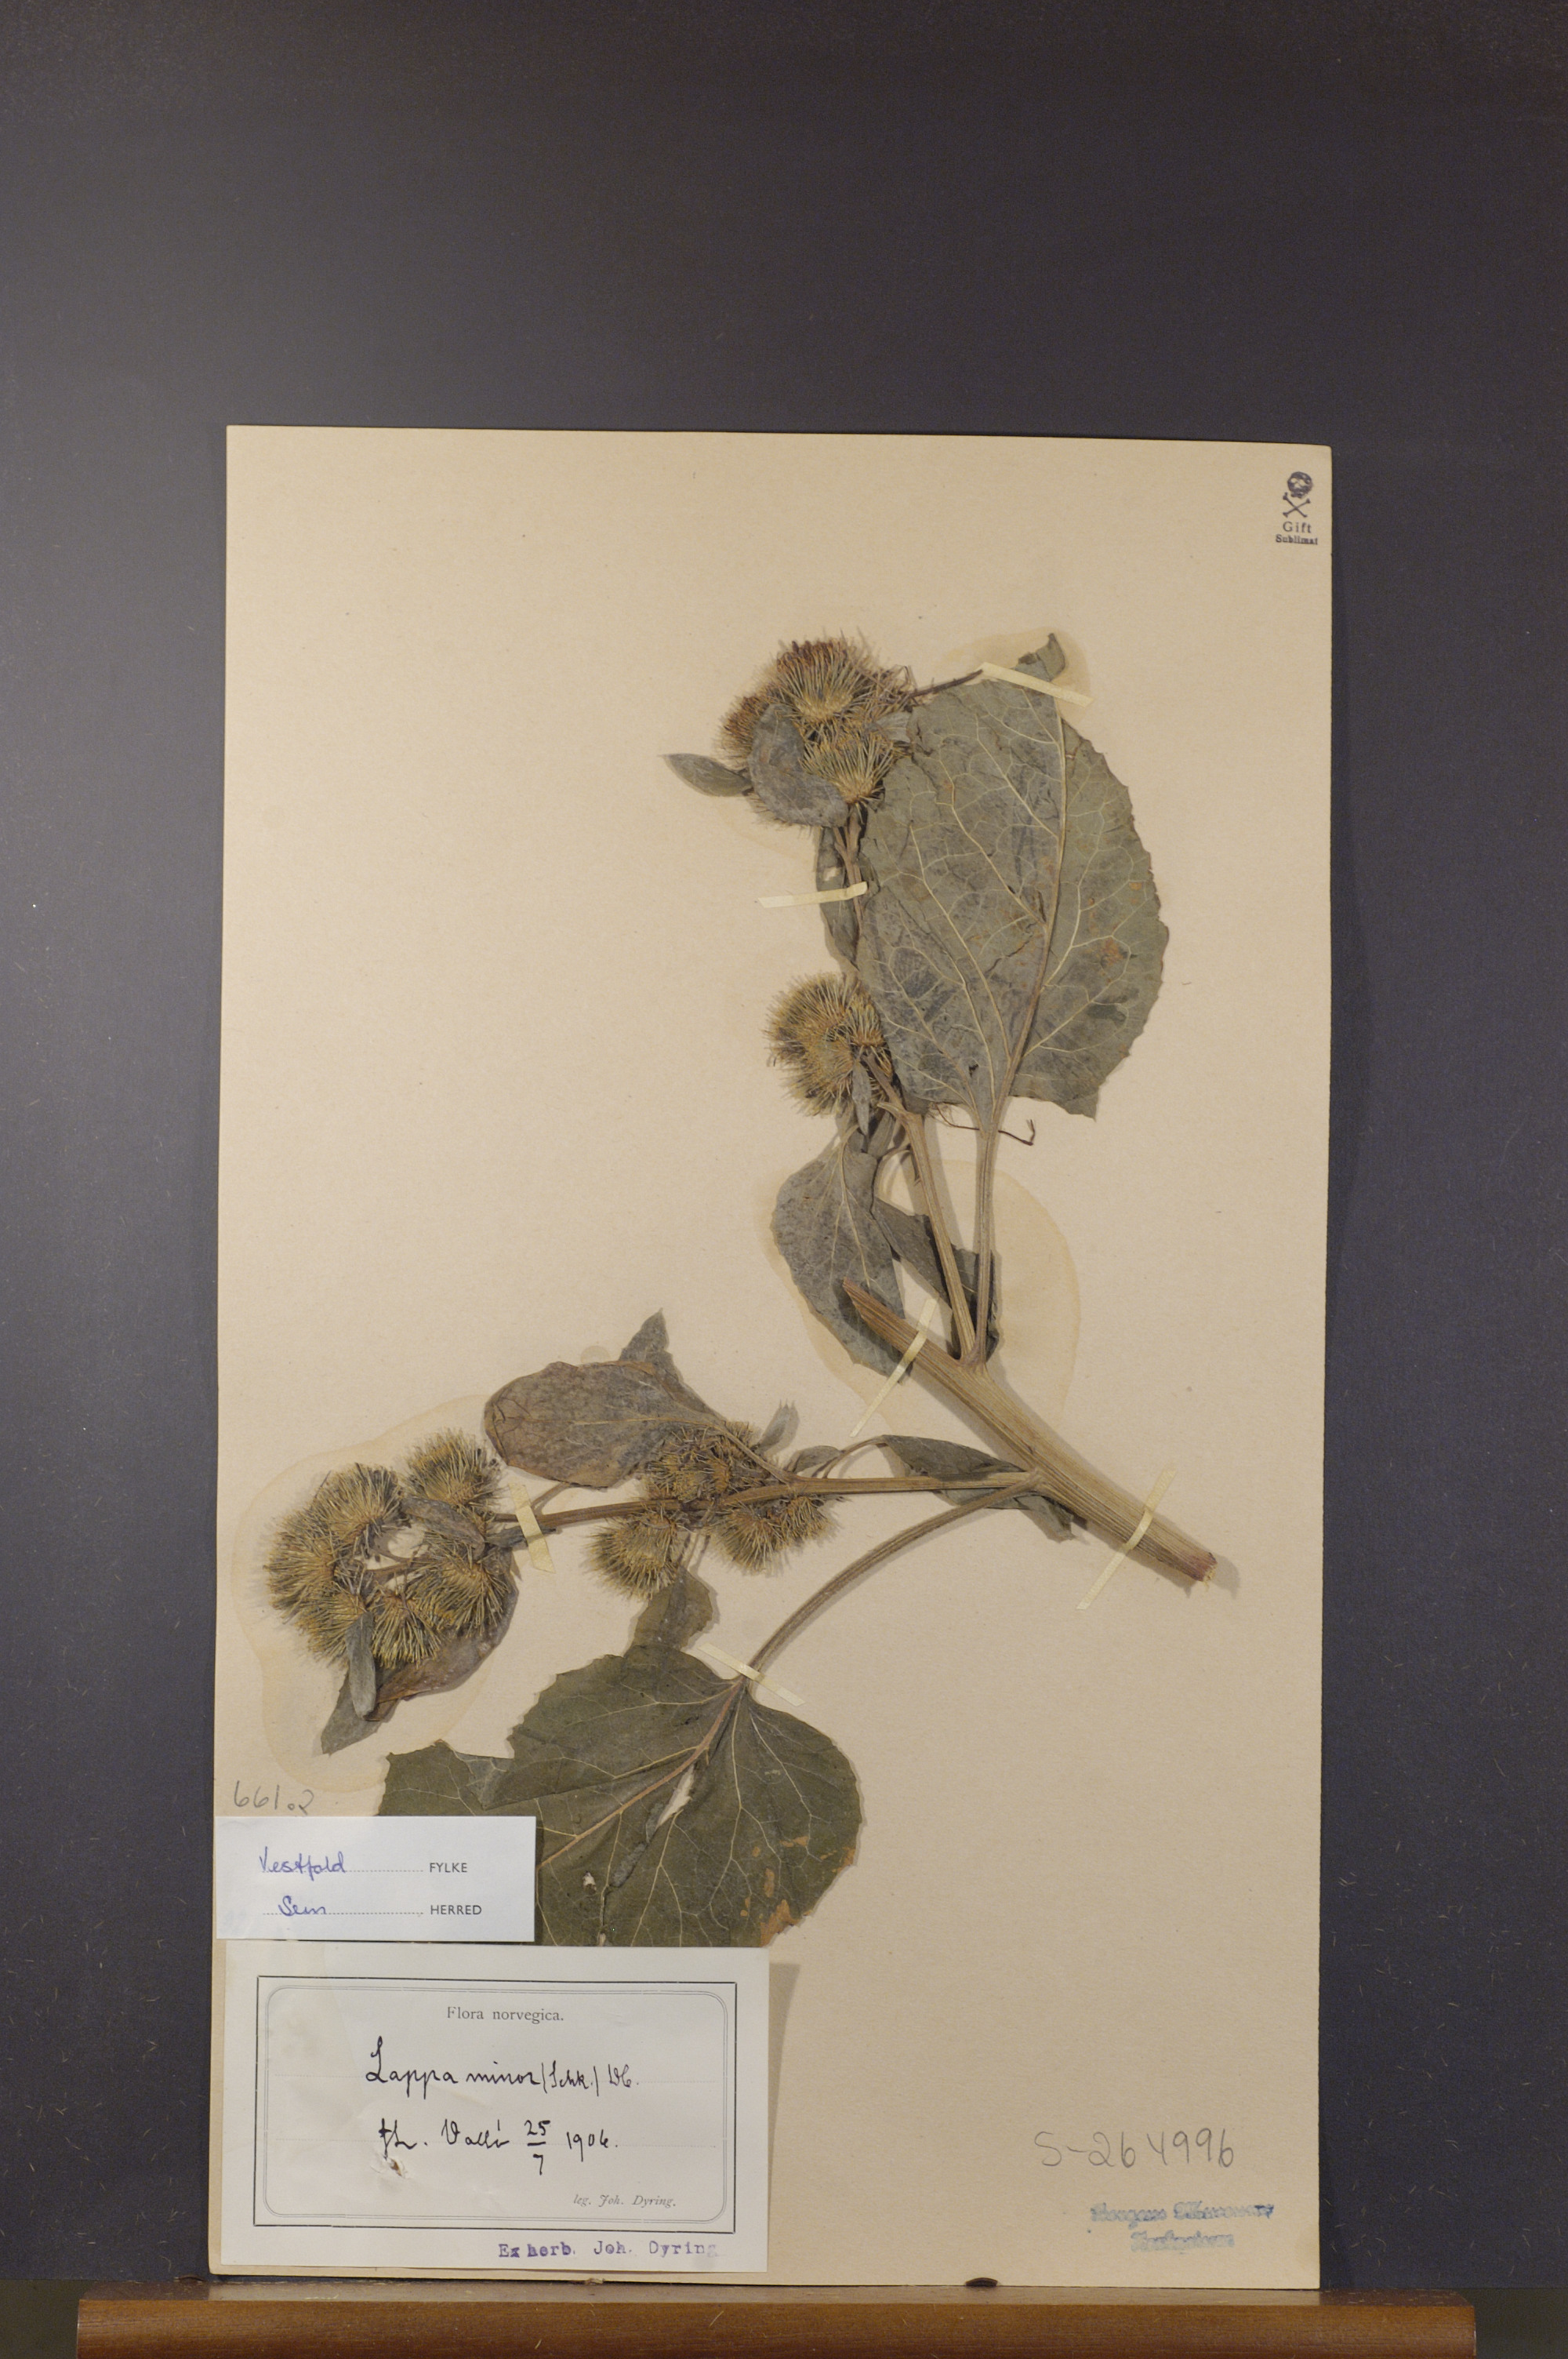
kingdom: Plantae
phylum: Tracheophyta
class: Magnoliopsida
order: Asterales
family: Asteraceae
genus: Arctium
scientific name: Arctium minus
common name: Lesser burdock
